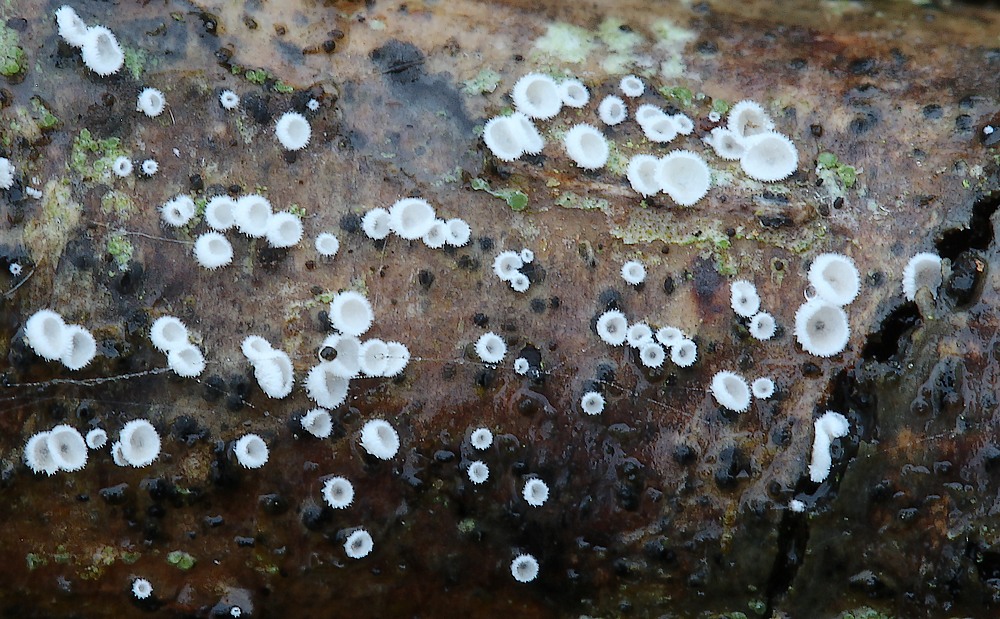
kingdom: Fungi
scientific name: Fungi
